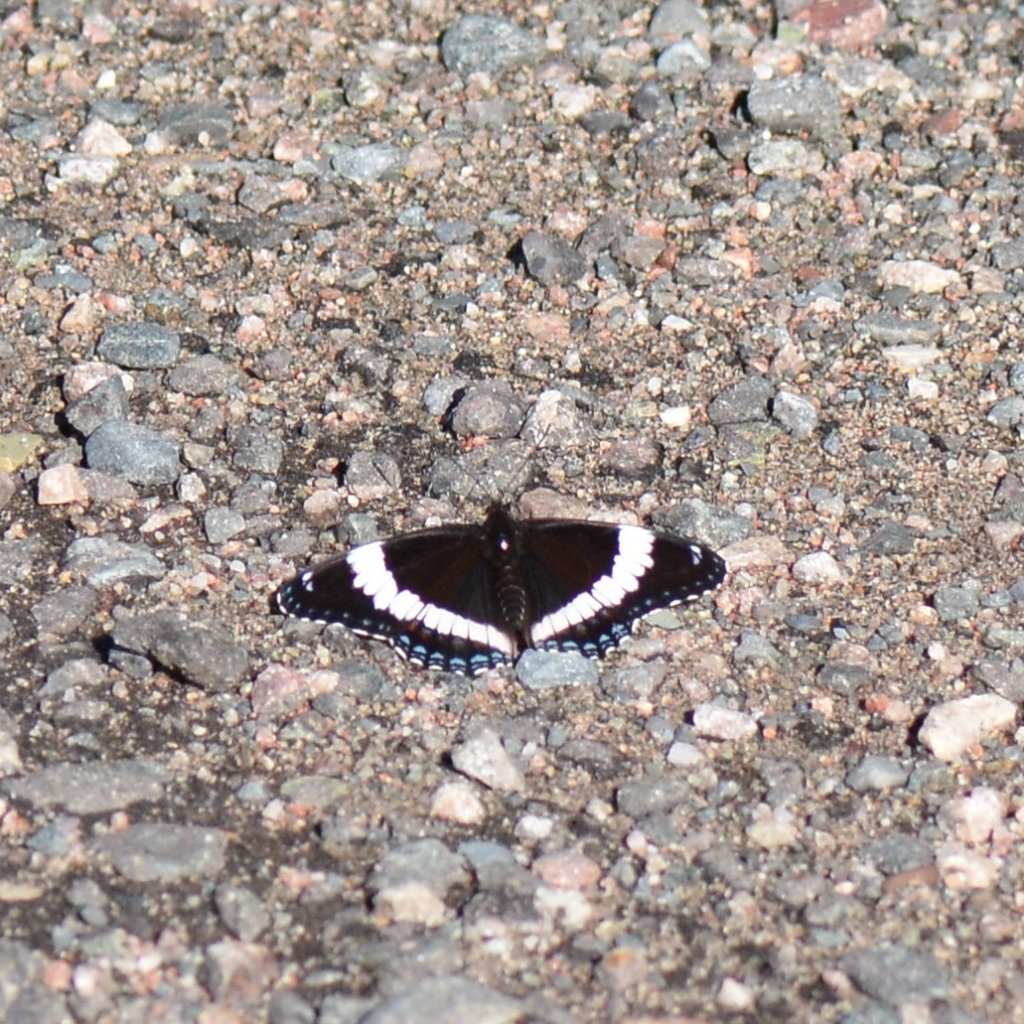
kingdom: Animalia
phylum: Arthropoda
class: Insecta
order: Lepidoptera
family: Nymphalidae
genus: Limenitis
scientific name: Limenitis arthemis
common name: Red-spotted Admiral
